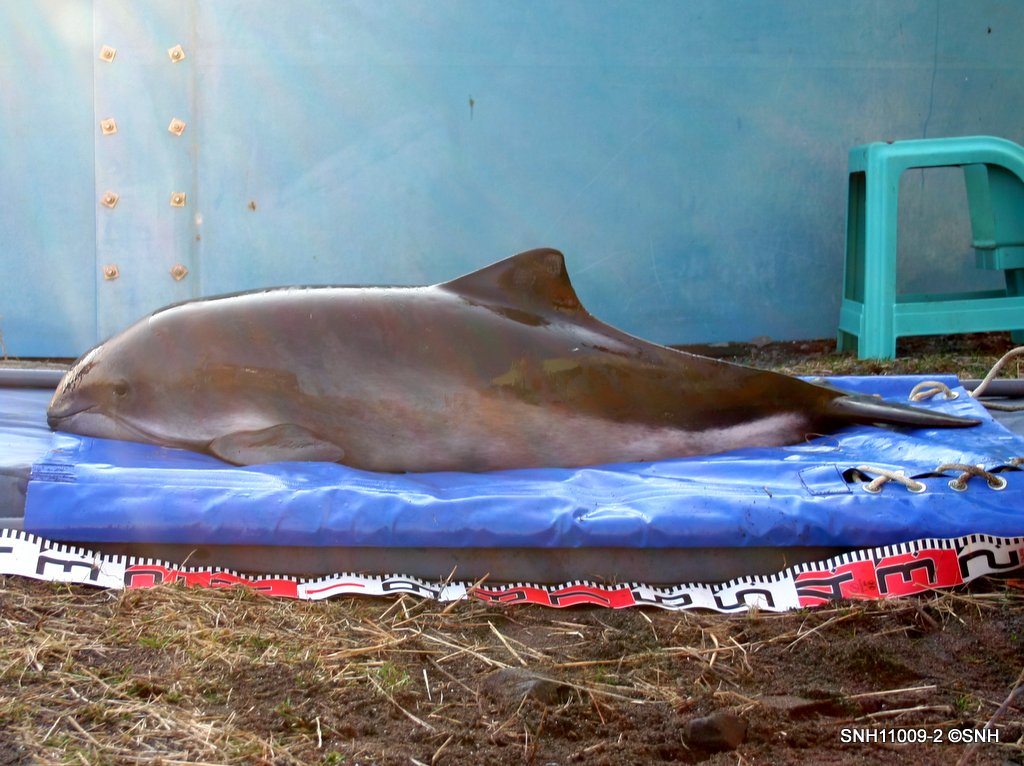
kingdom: Animalia
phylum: Chordata
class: Mammalia
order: Cetacea
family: Phocoenidae
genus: Phocoena
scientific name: Phocoena phocoena
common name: Harbour porpoise
